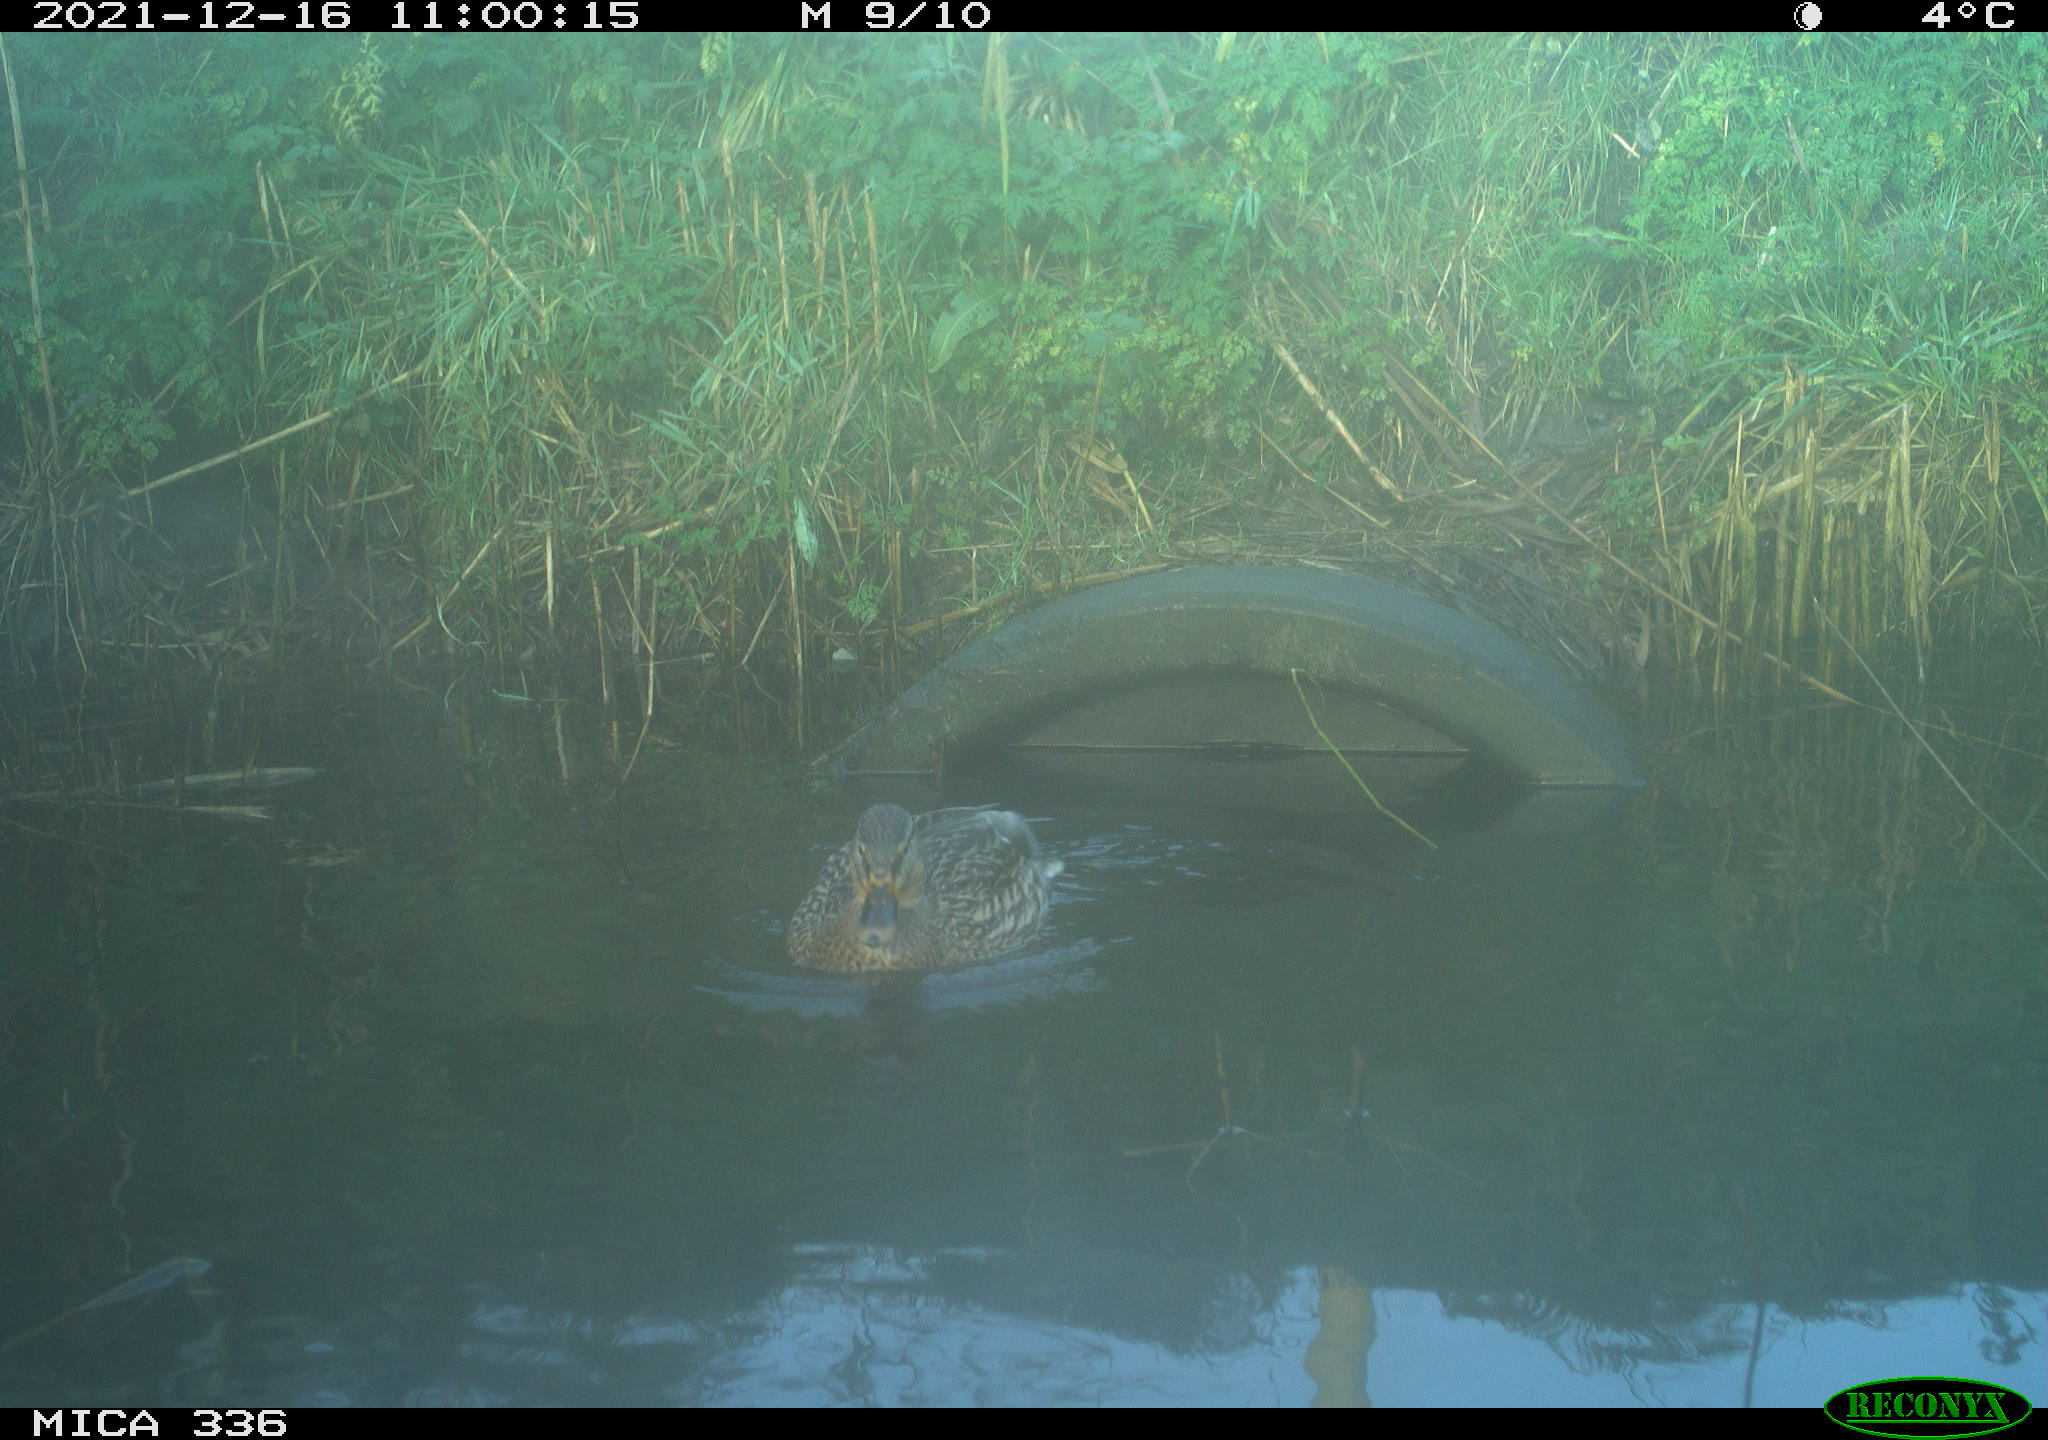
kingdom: Animalia
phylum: Chordata
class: Aves
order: Anseriformes
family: Anatidae
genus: Anas
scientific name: Anas platyrhynchos
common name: Mallard
